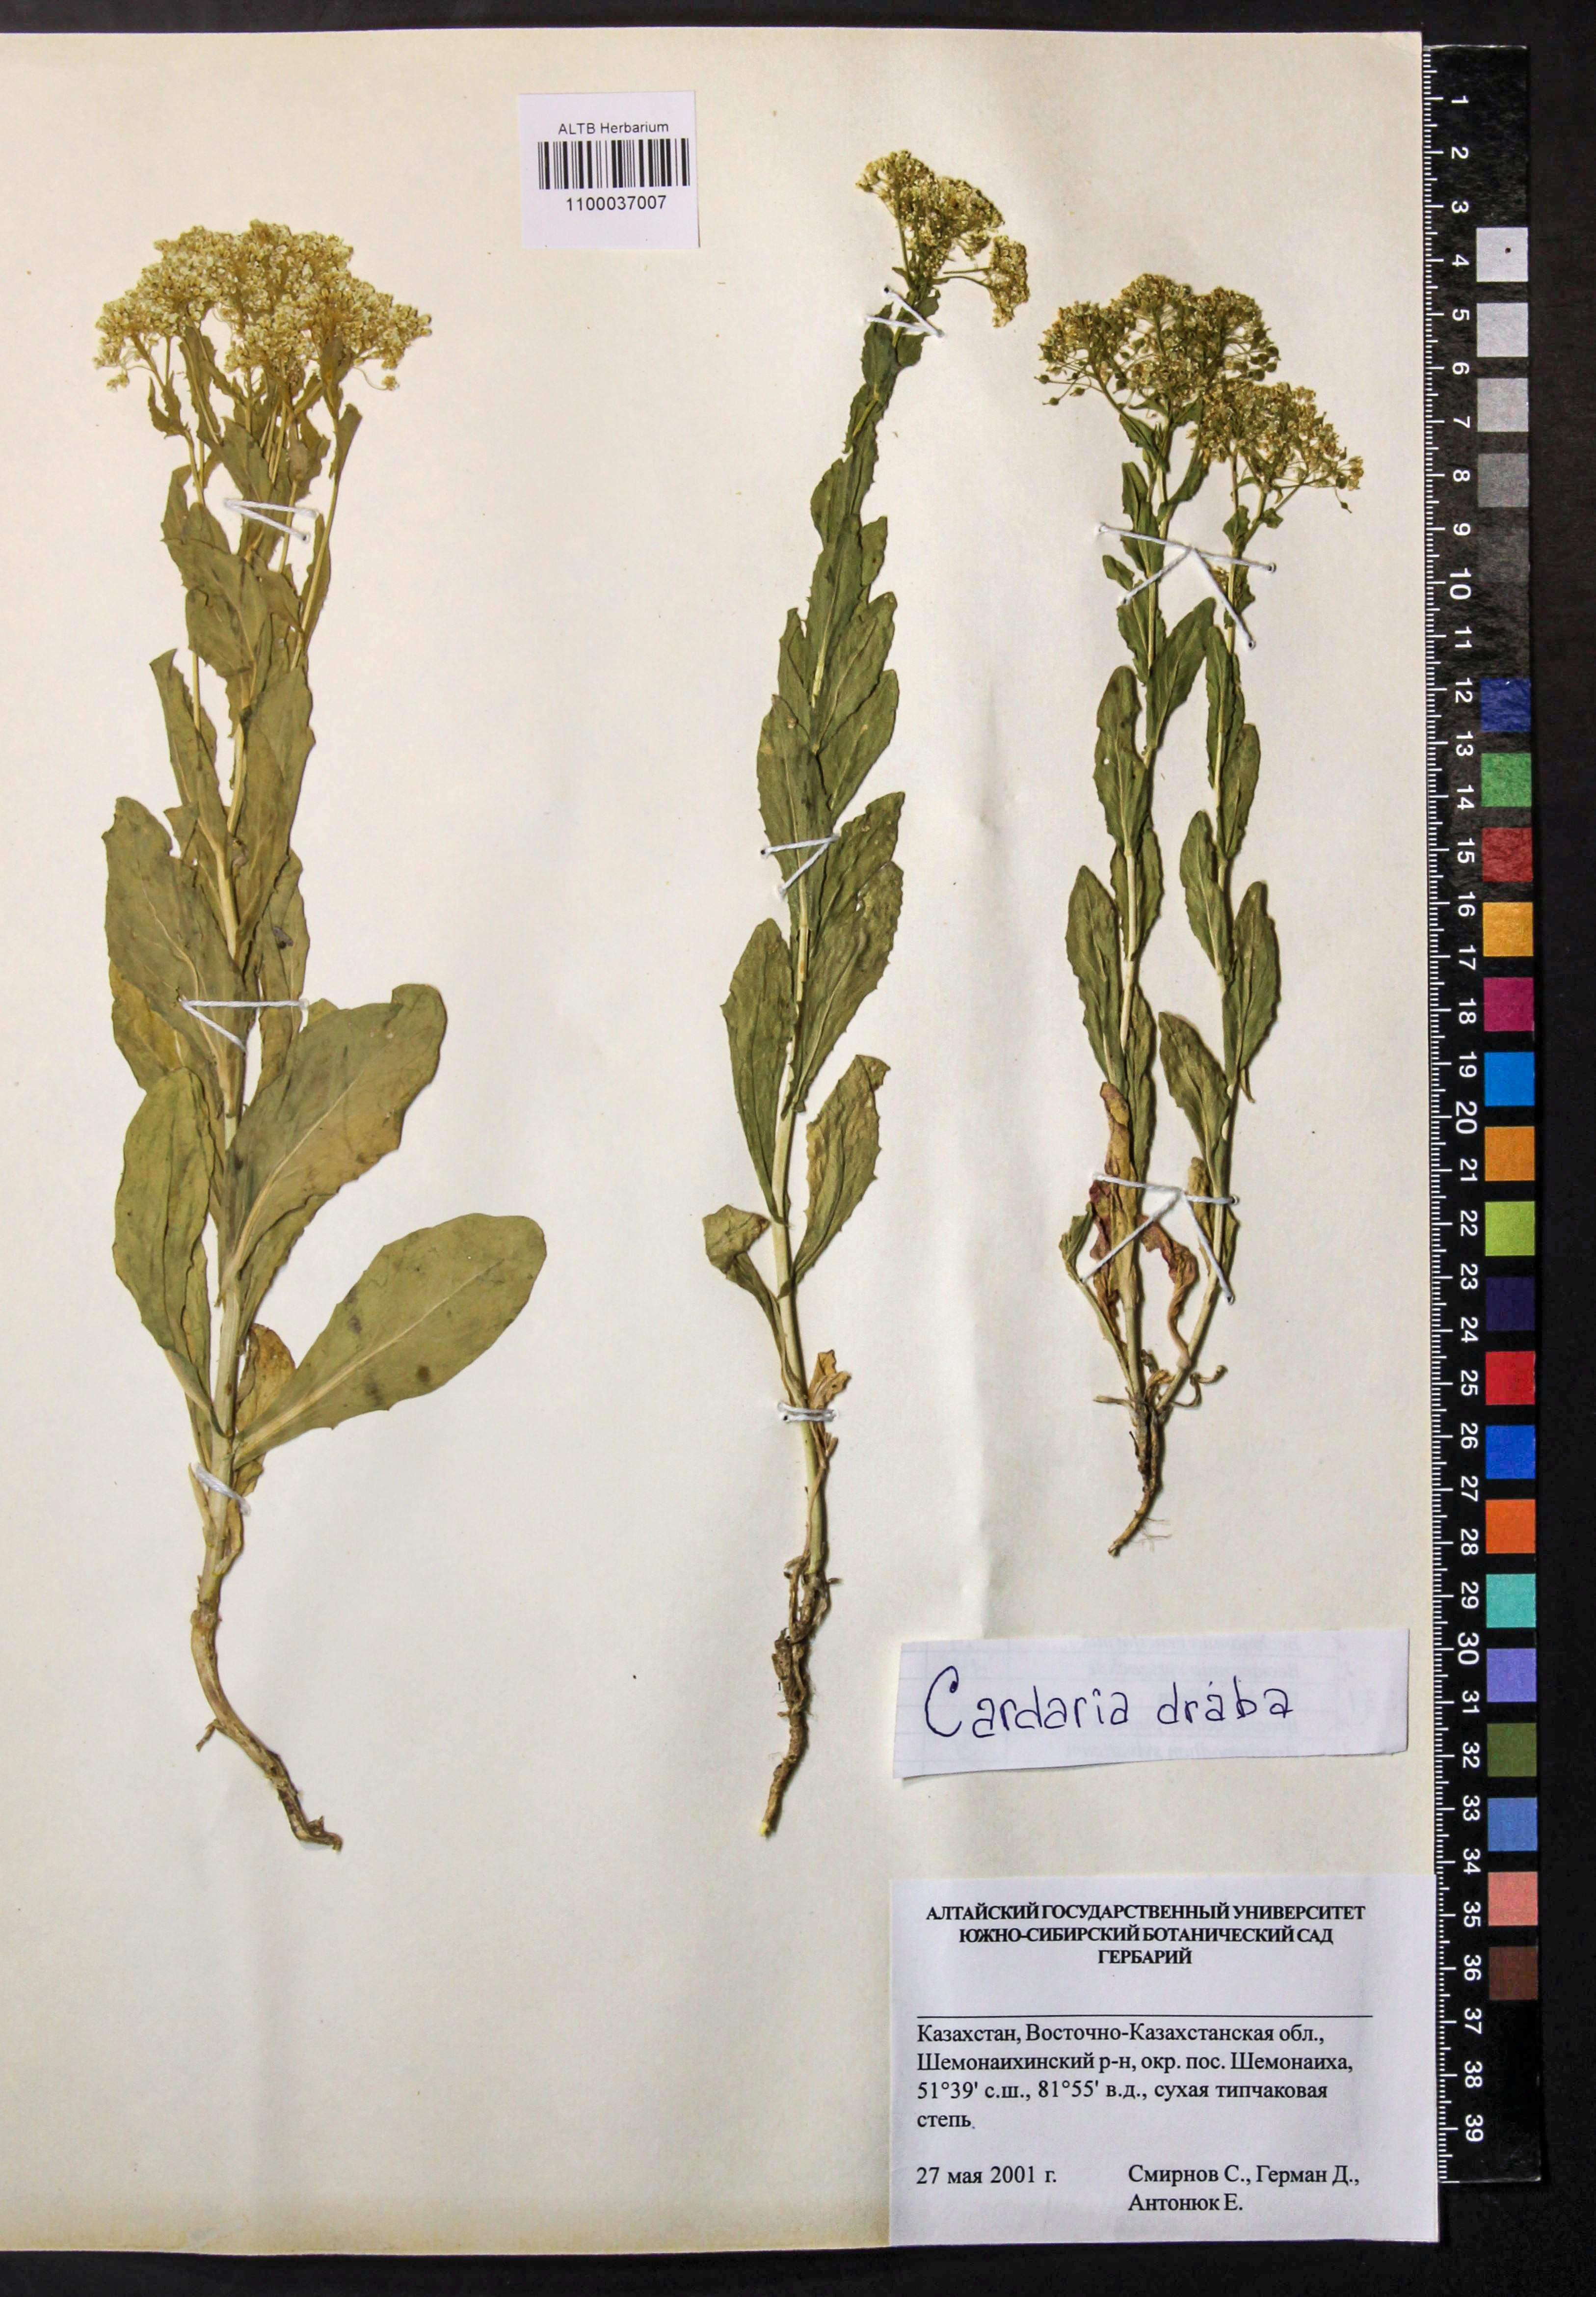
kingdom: Plantae
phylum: Tracheophyta
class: Magnoliopsida
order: Brassicales
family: Brassicaceae
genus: Lepidium
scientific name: Lepidium draba
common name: Hoary cress
